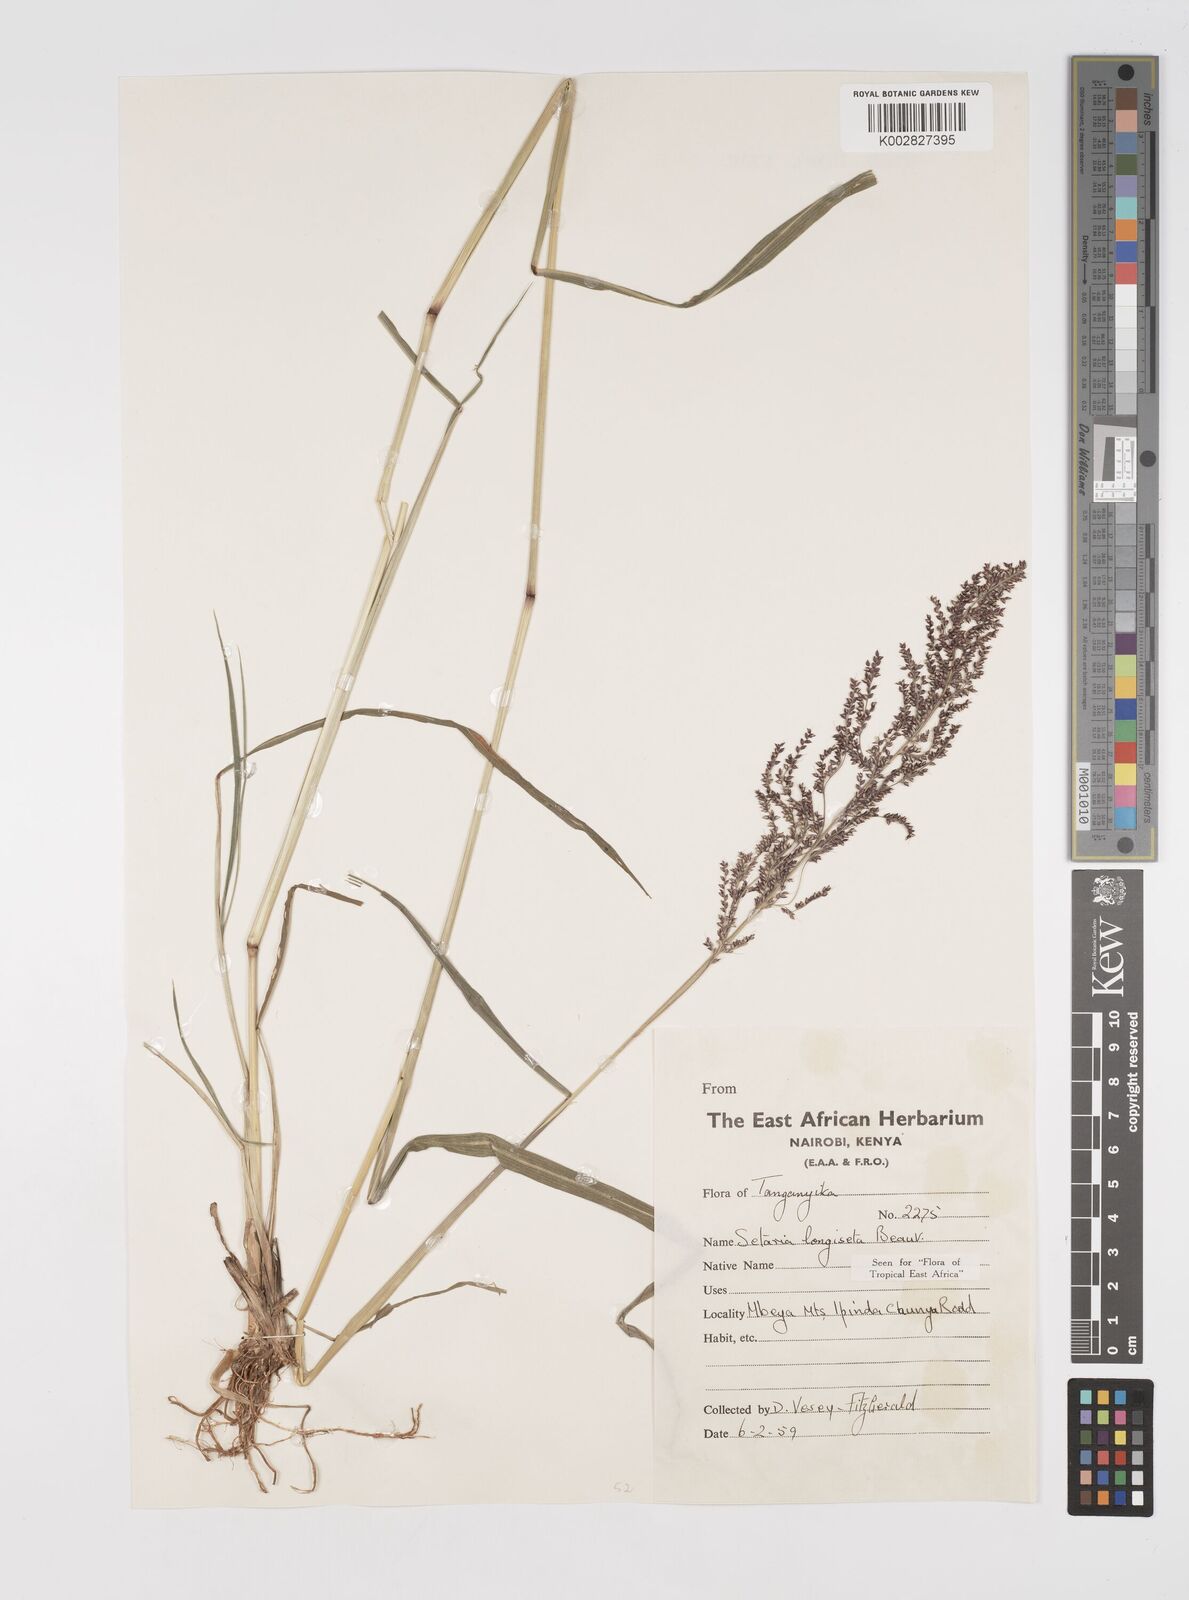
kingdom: Plantae
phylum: Tracheophyta
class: Liliopsida
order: Poales
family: Poaceae
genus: Setaria
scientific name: Setaria longiseta
